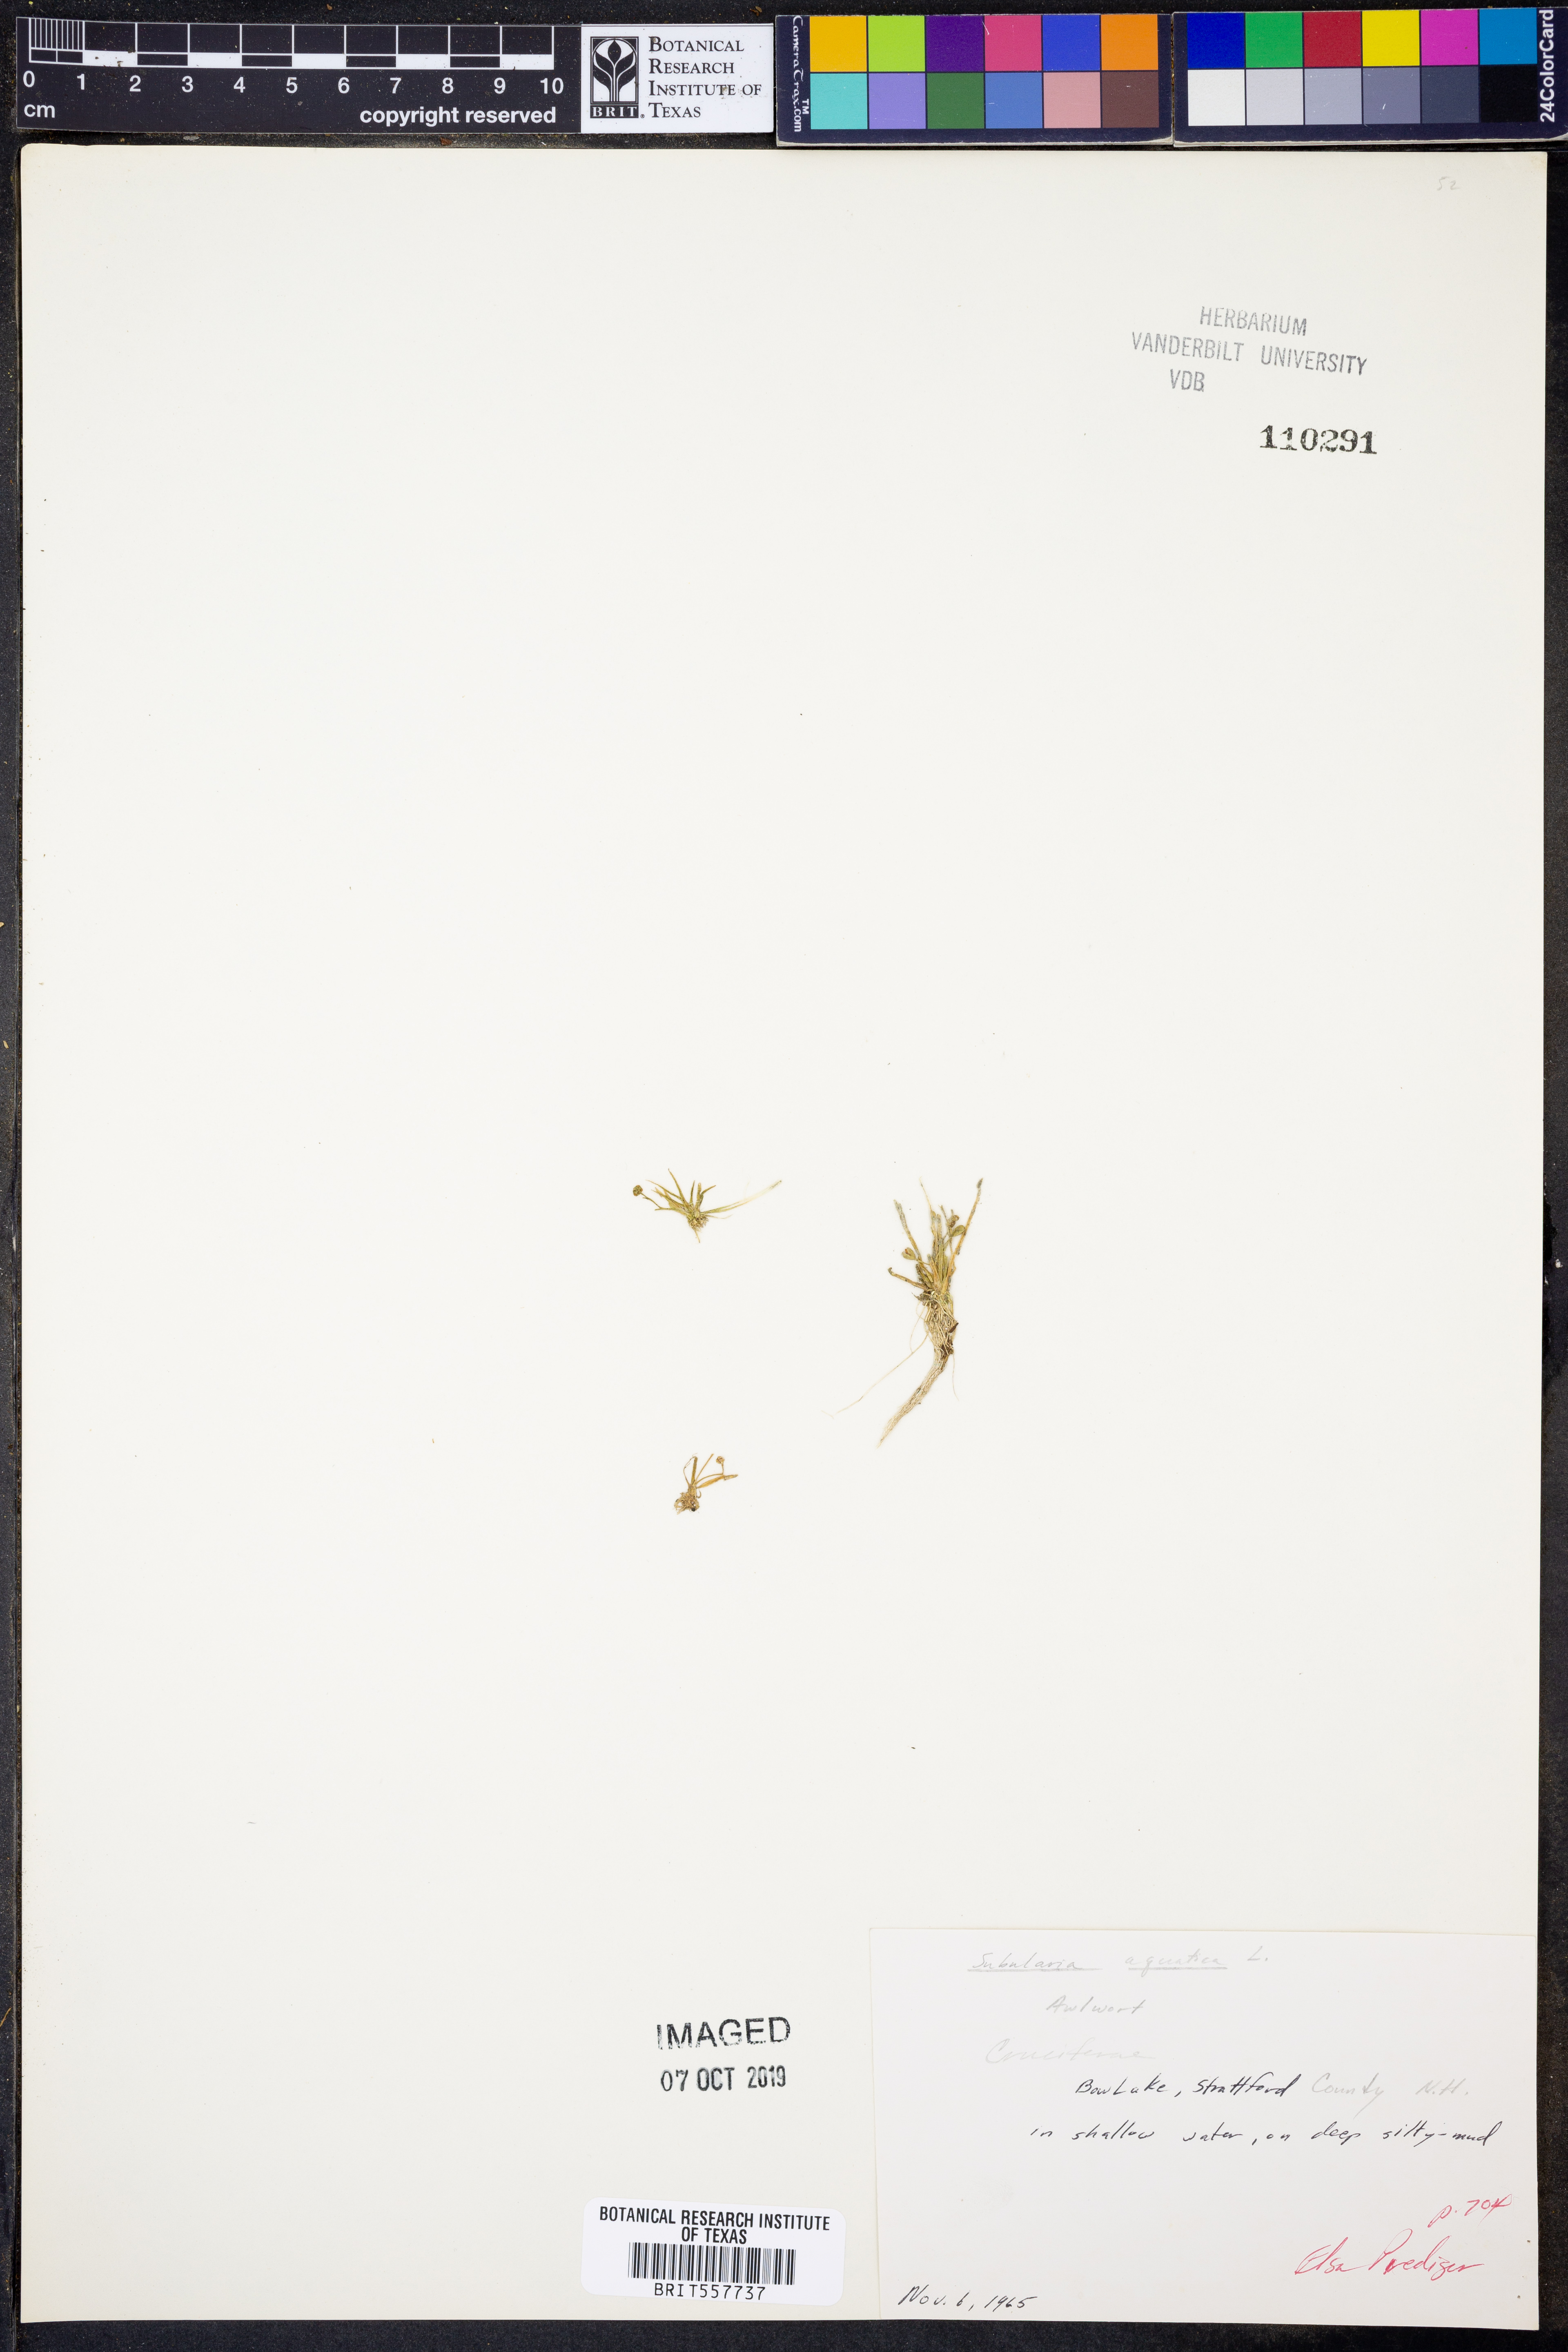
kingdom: Plantae
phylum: Tracheophyta
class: Magnoliopsida
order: Brassicales
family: Brassicaceae
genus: Subularia
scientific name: Subularia aquatica
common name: Awlwort
